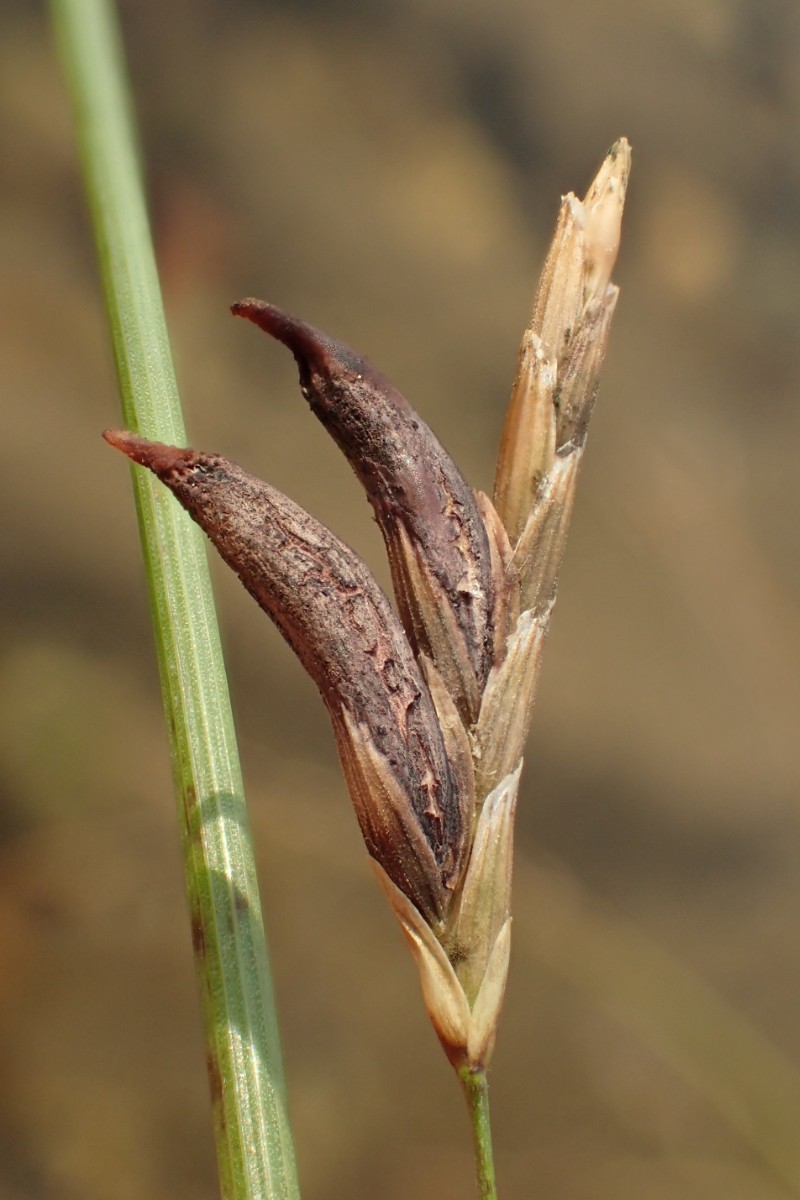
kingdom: Fungi
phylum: Ascomycota
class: Sordariomycetes
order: Hypocreales
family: Clavicipitaceae
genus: Claviceps
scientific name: Claviceps purpurea
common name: almindelig meldrøjer
